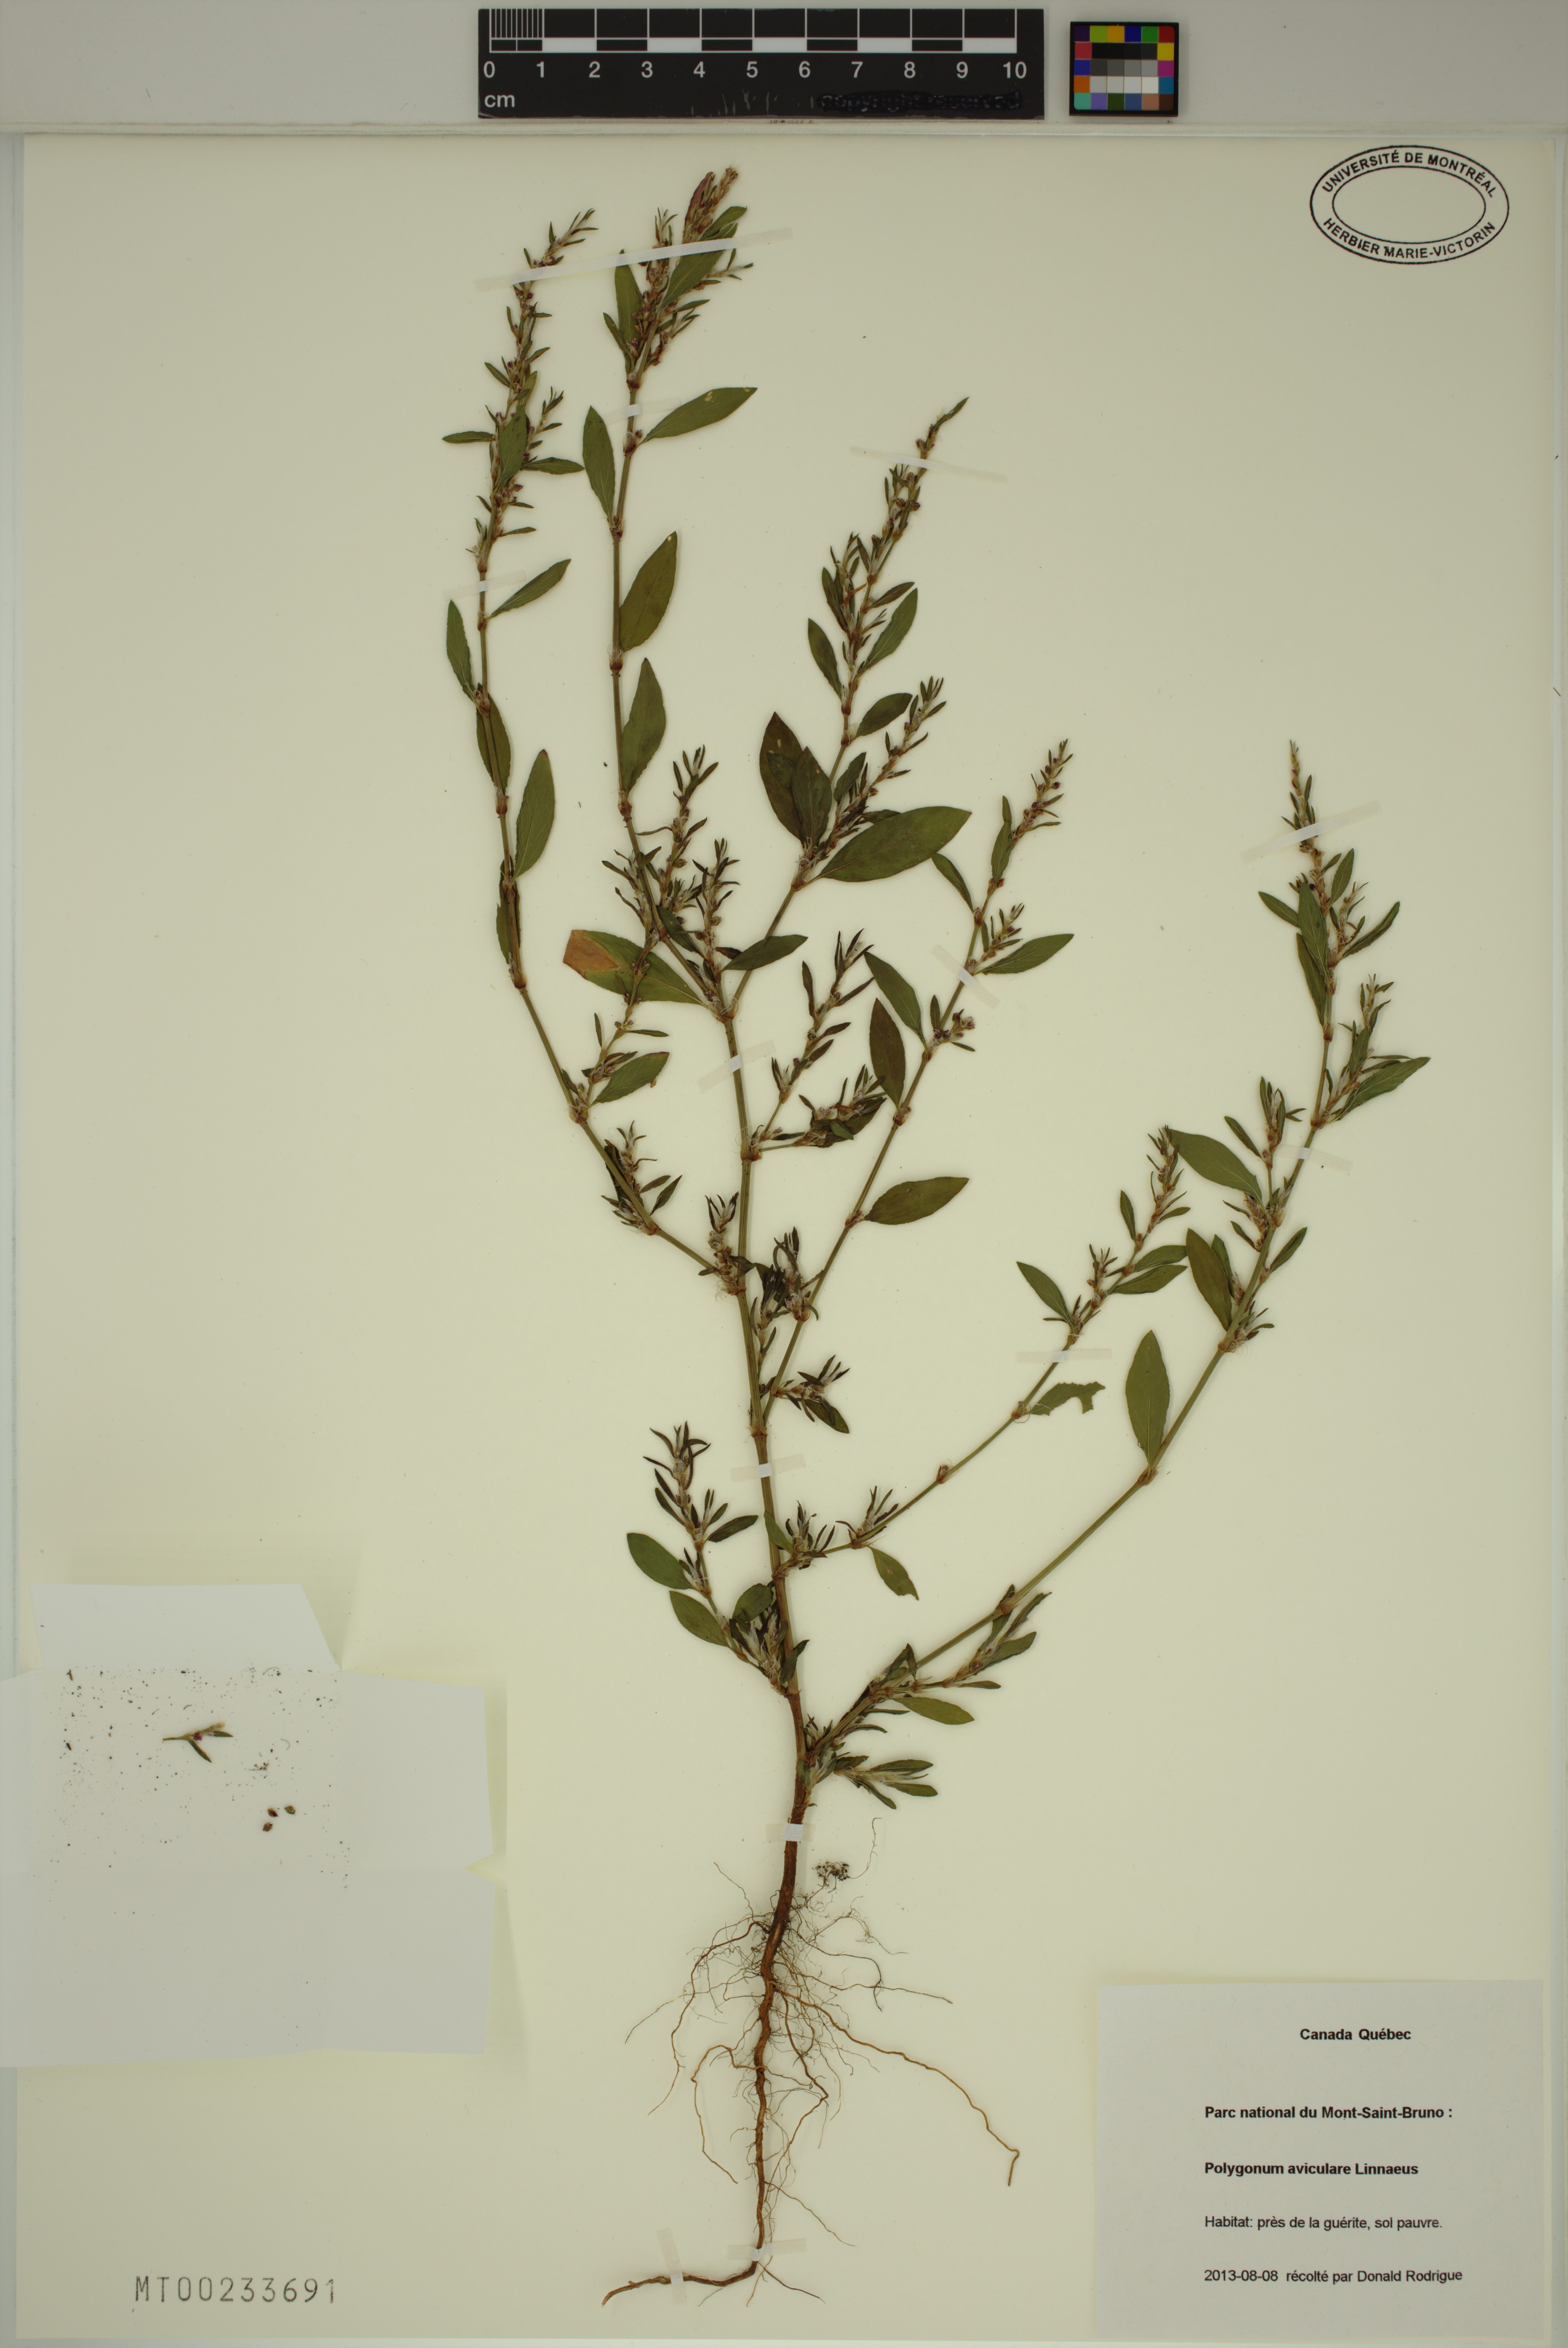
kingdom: Plantae
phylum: Tracheophyta
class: Magnoliopsida
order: Caryophyllales
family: Polygonaceae
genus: Polygonum
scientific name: Polygonum aviculare
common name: Prostrate knotweed
